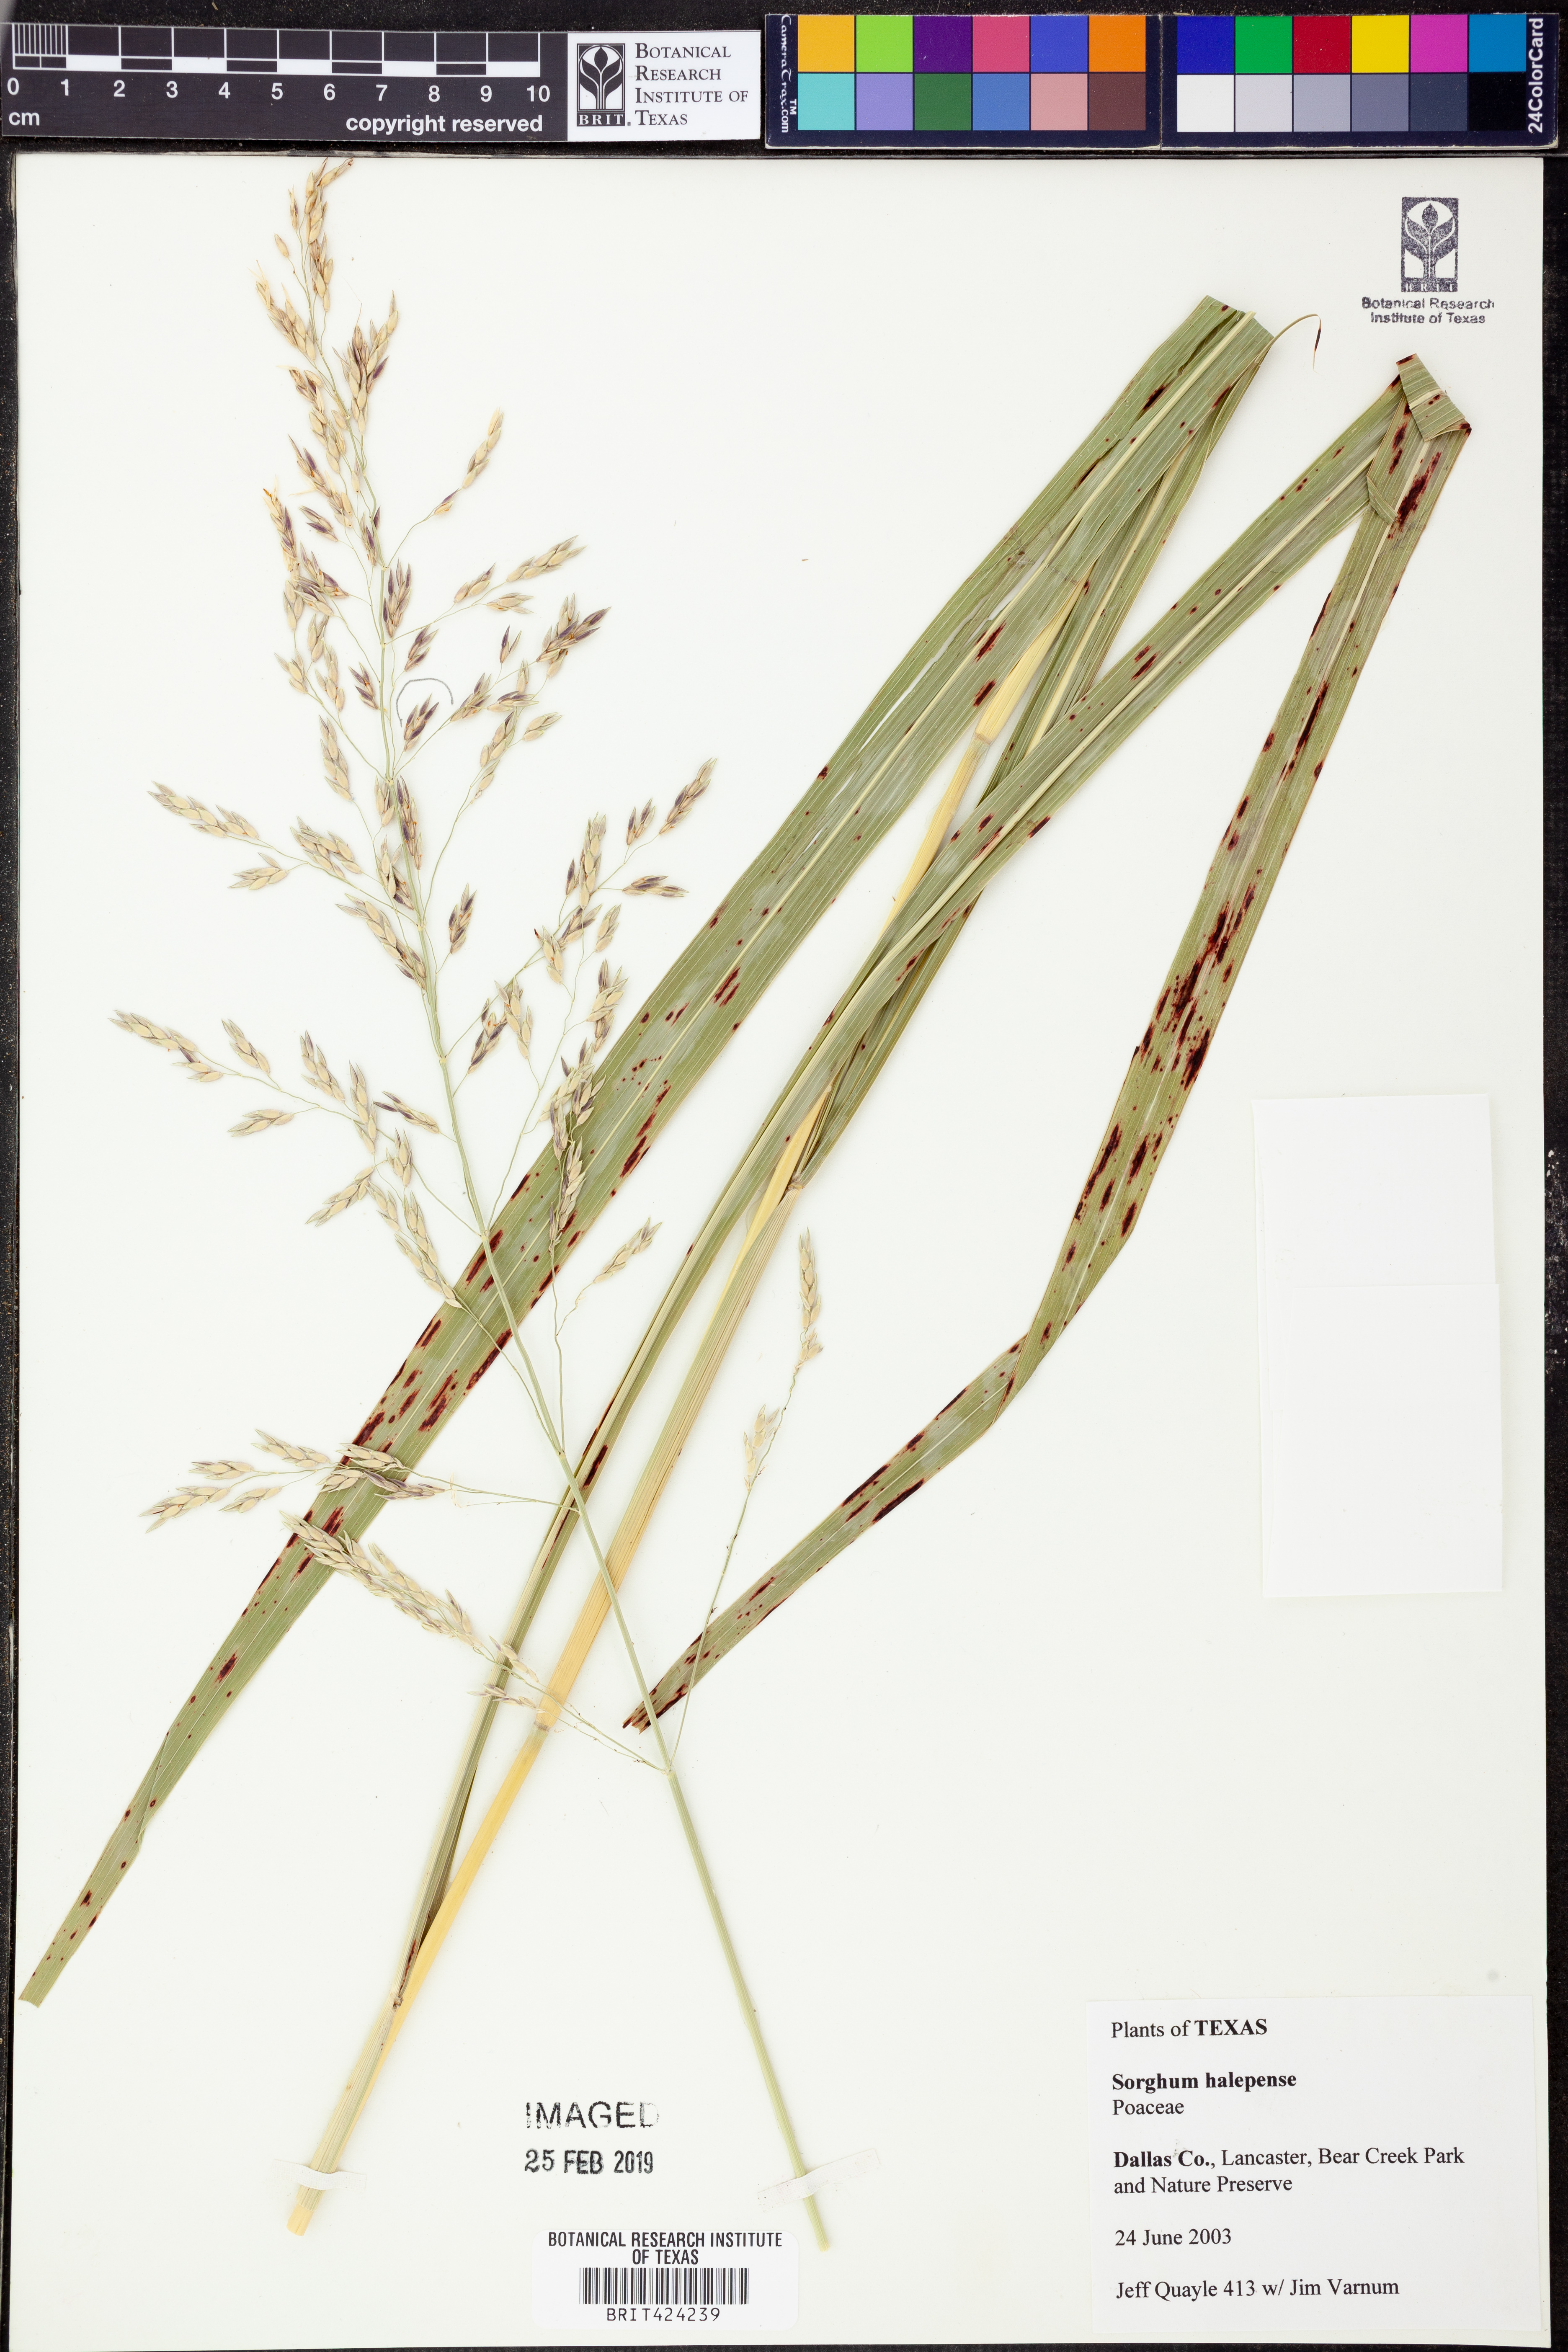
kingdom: Plantae
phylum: Tracheophyta
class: Liliopsida
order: Poales
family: Poaceae
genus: Sorghum
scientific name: Sorghum halepense
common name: Johnson-grass
